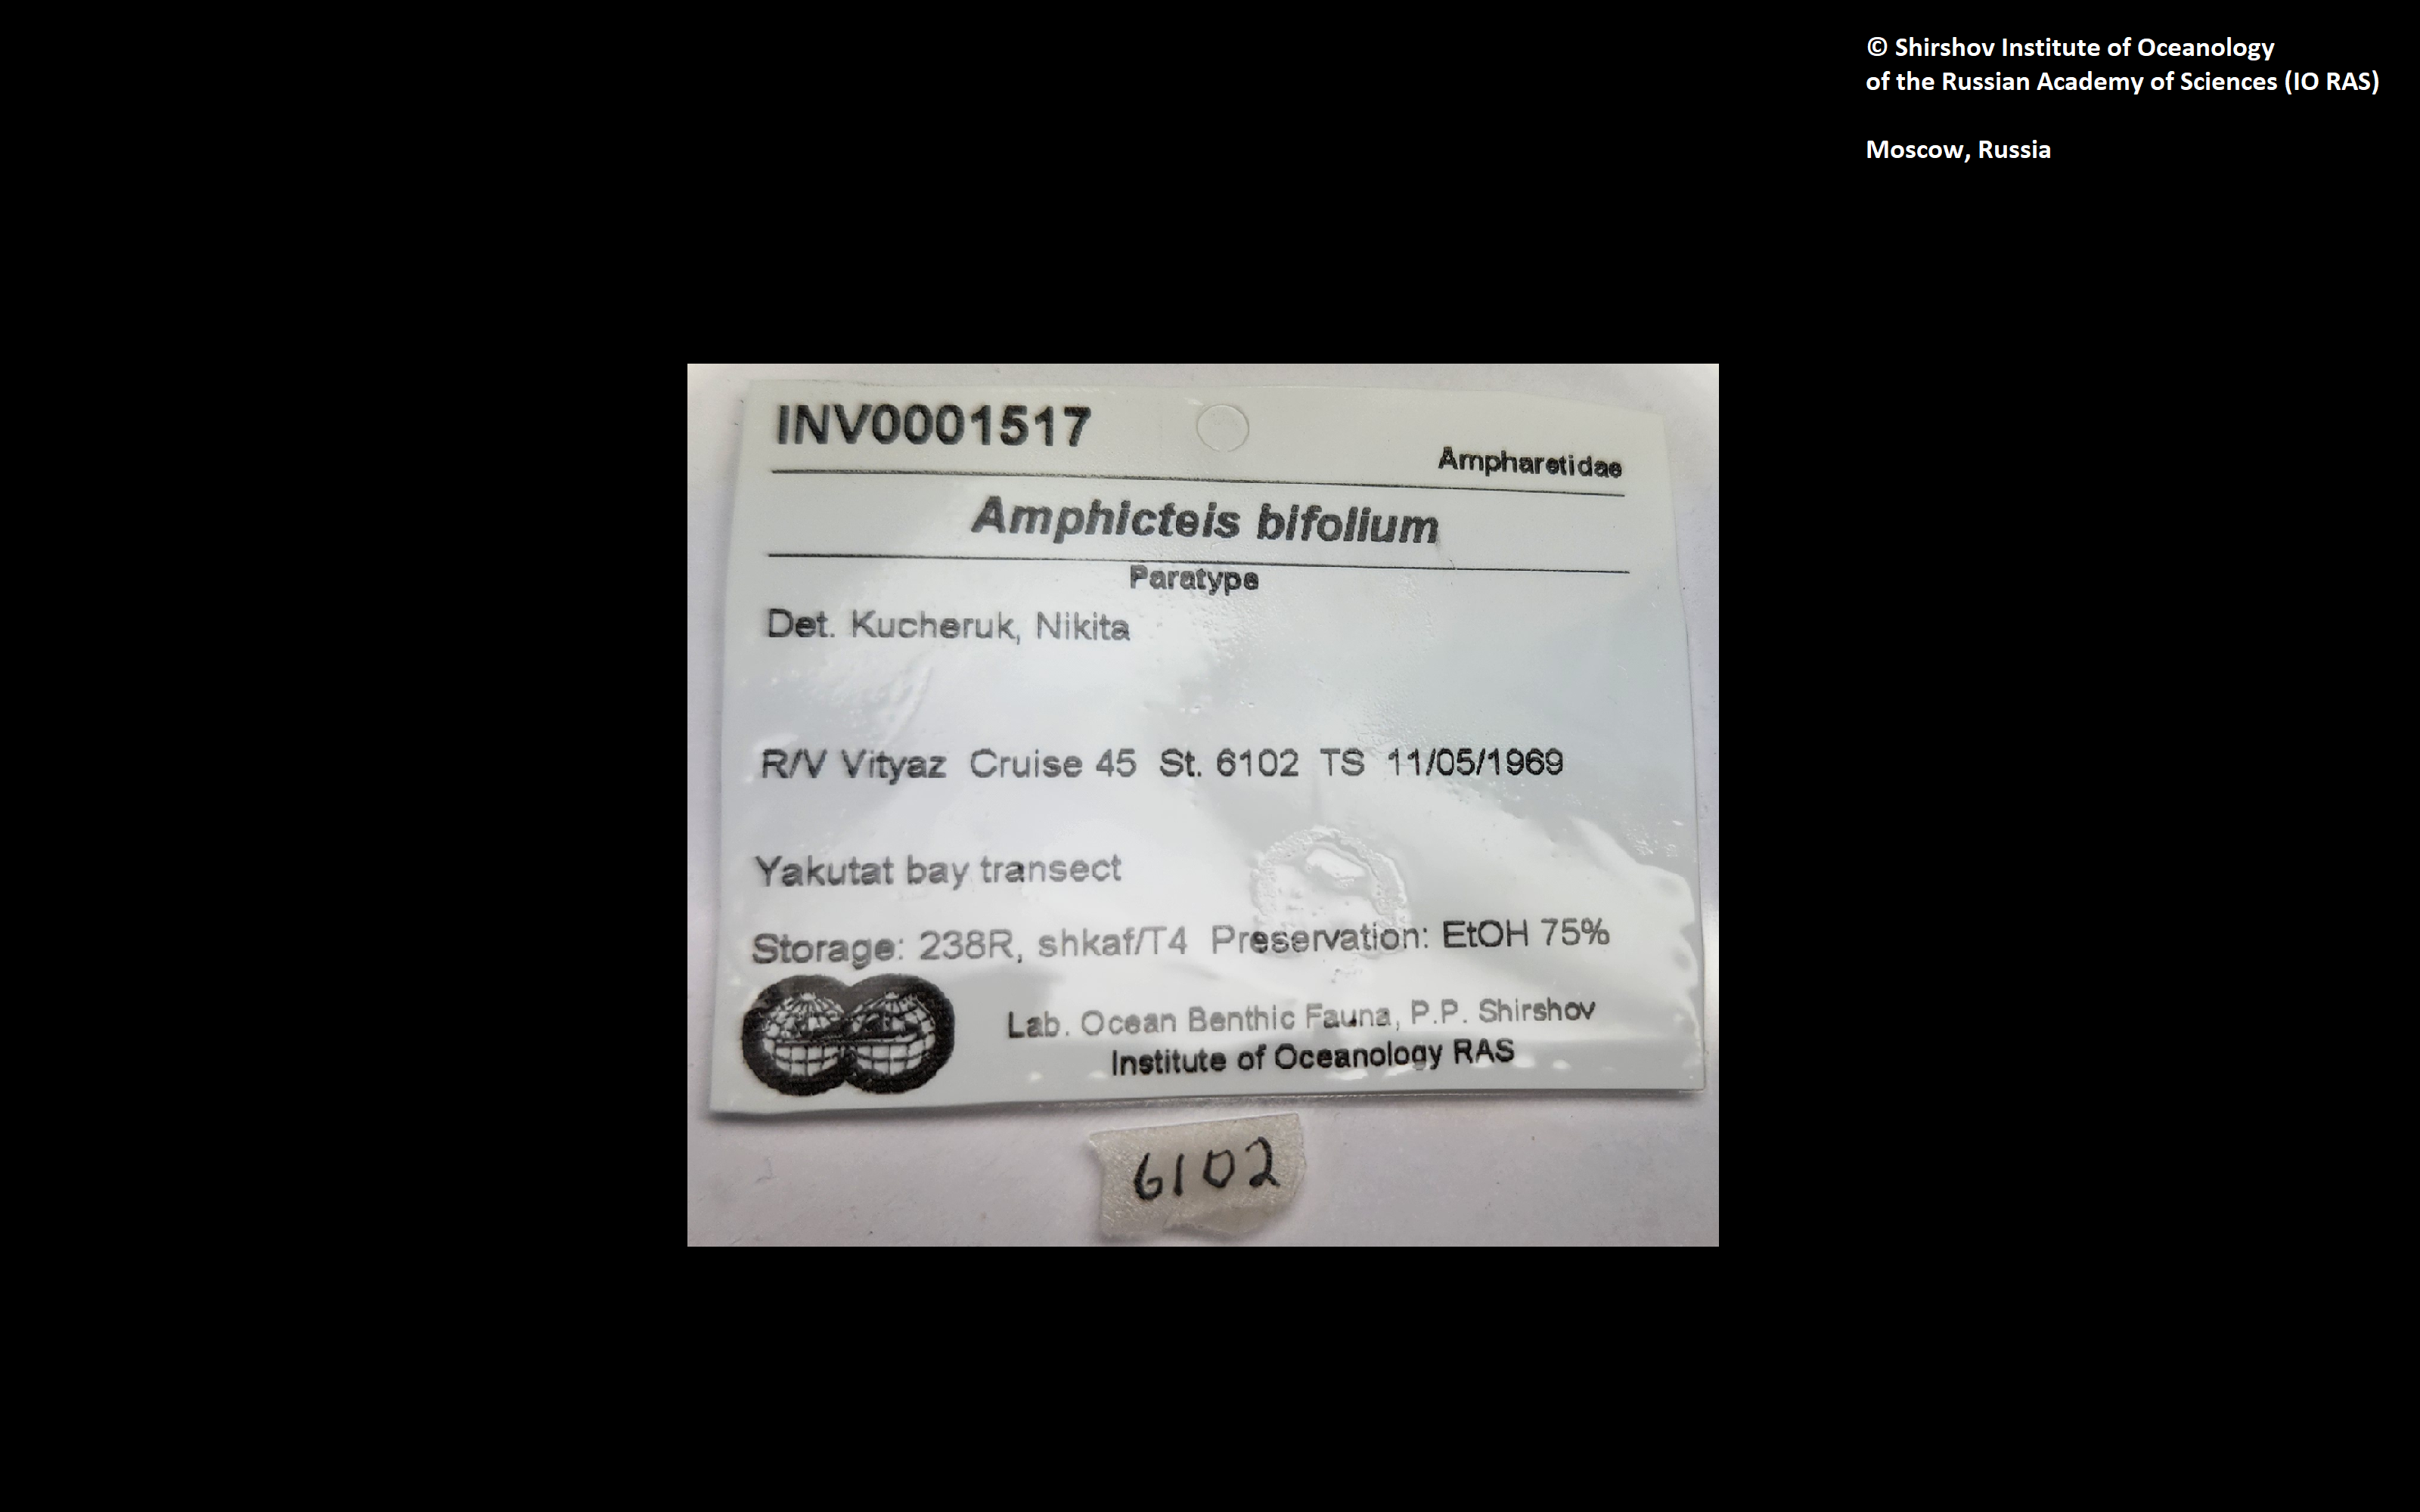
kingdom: Animalia
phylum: Annelida
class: Polychaeta
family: Ampharetidae
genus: Amphicteis
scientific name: Amphicteis bifolium
